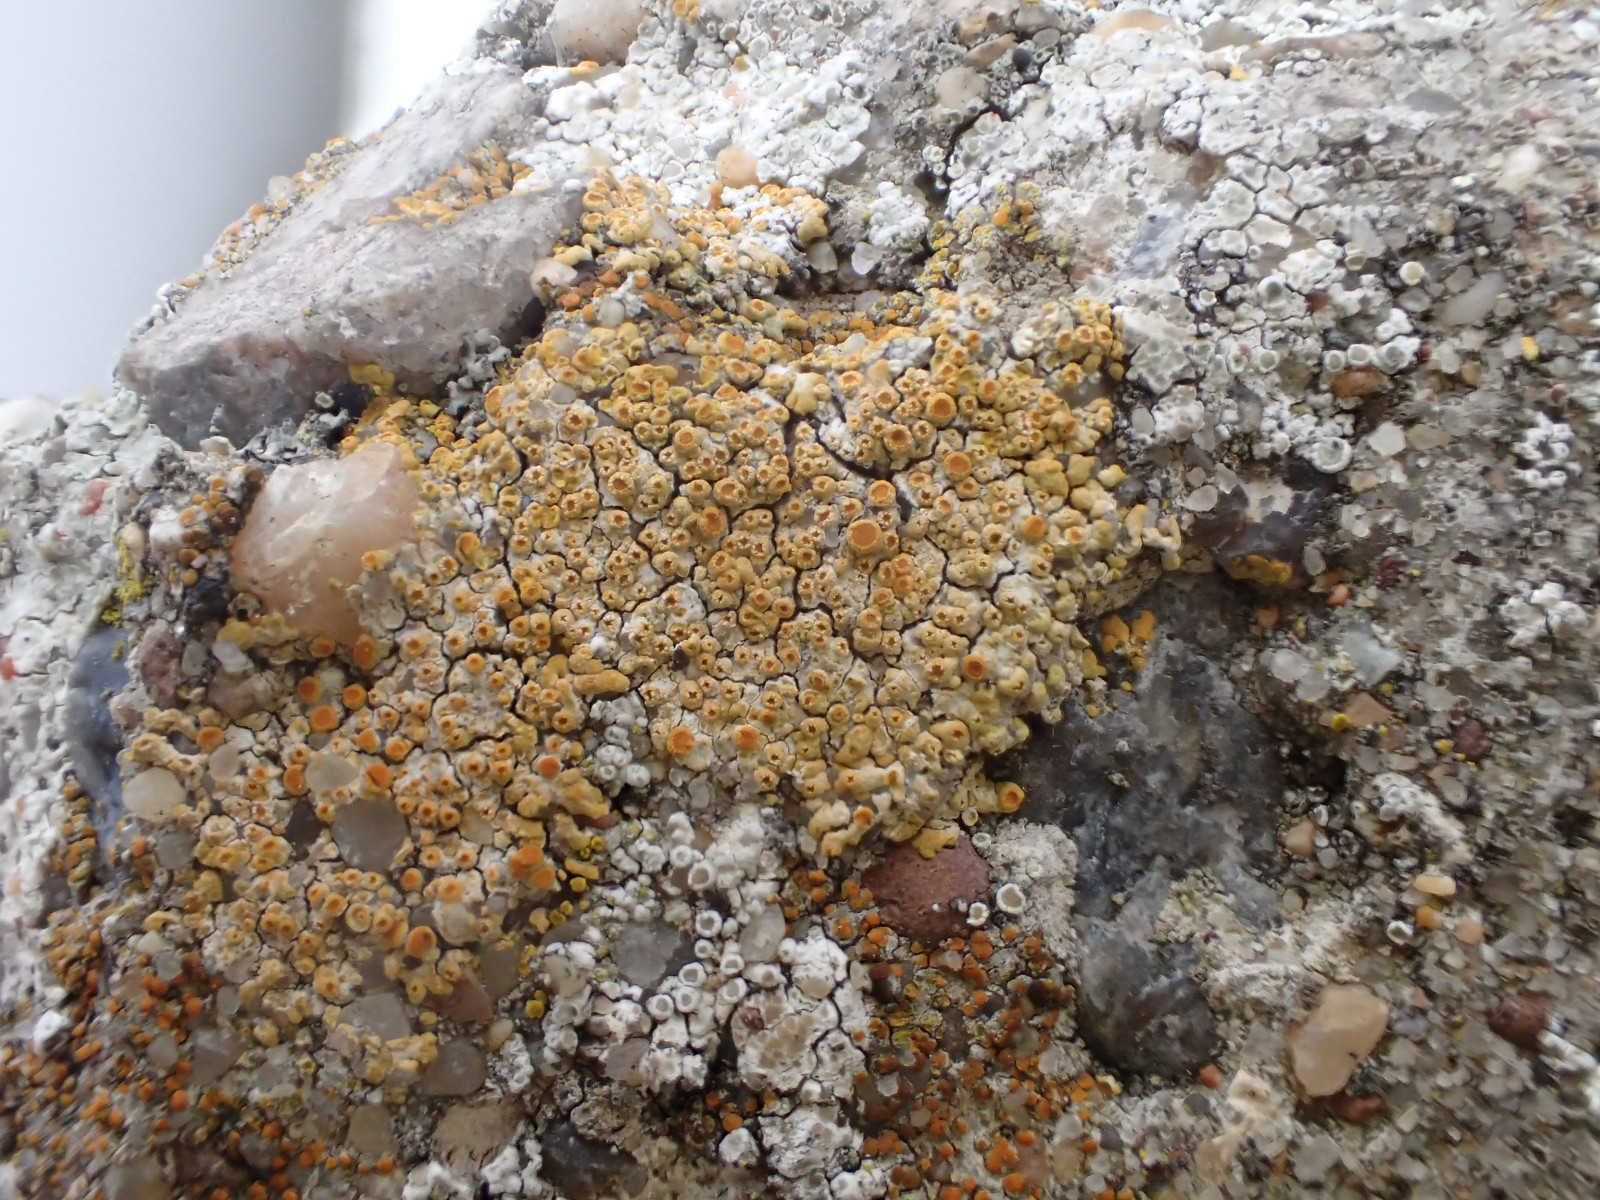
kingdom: Fungi
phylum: Ascomycota
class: Lecanoromycetes
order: Teloschistales
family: Teloschistaceae
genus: Calogaya
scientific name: Calogaya pusilla
